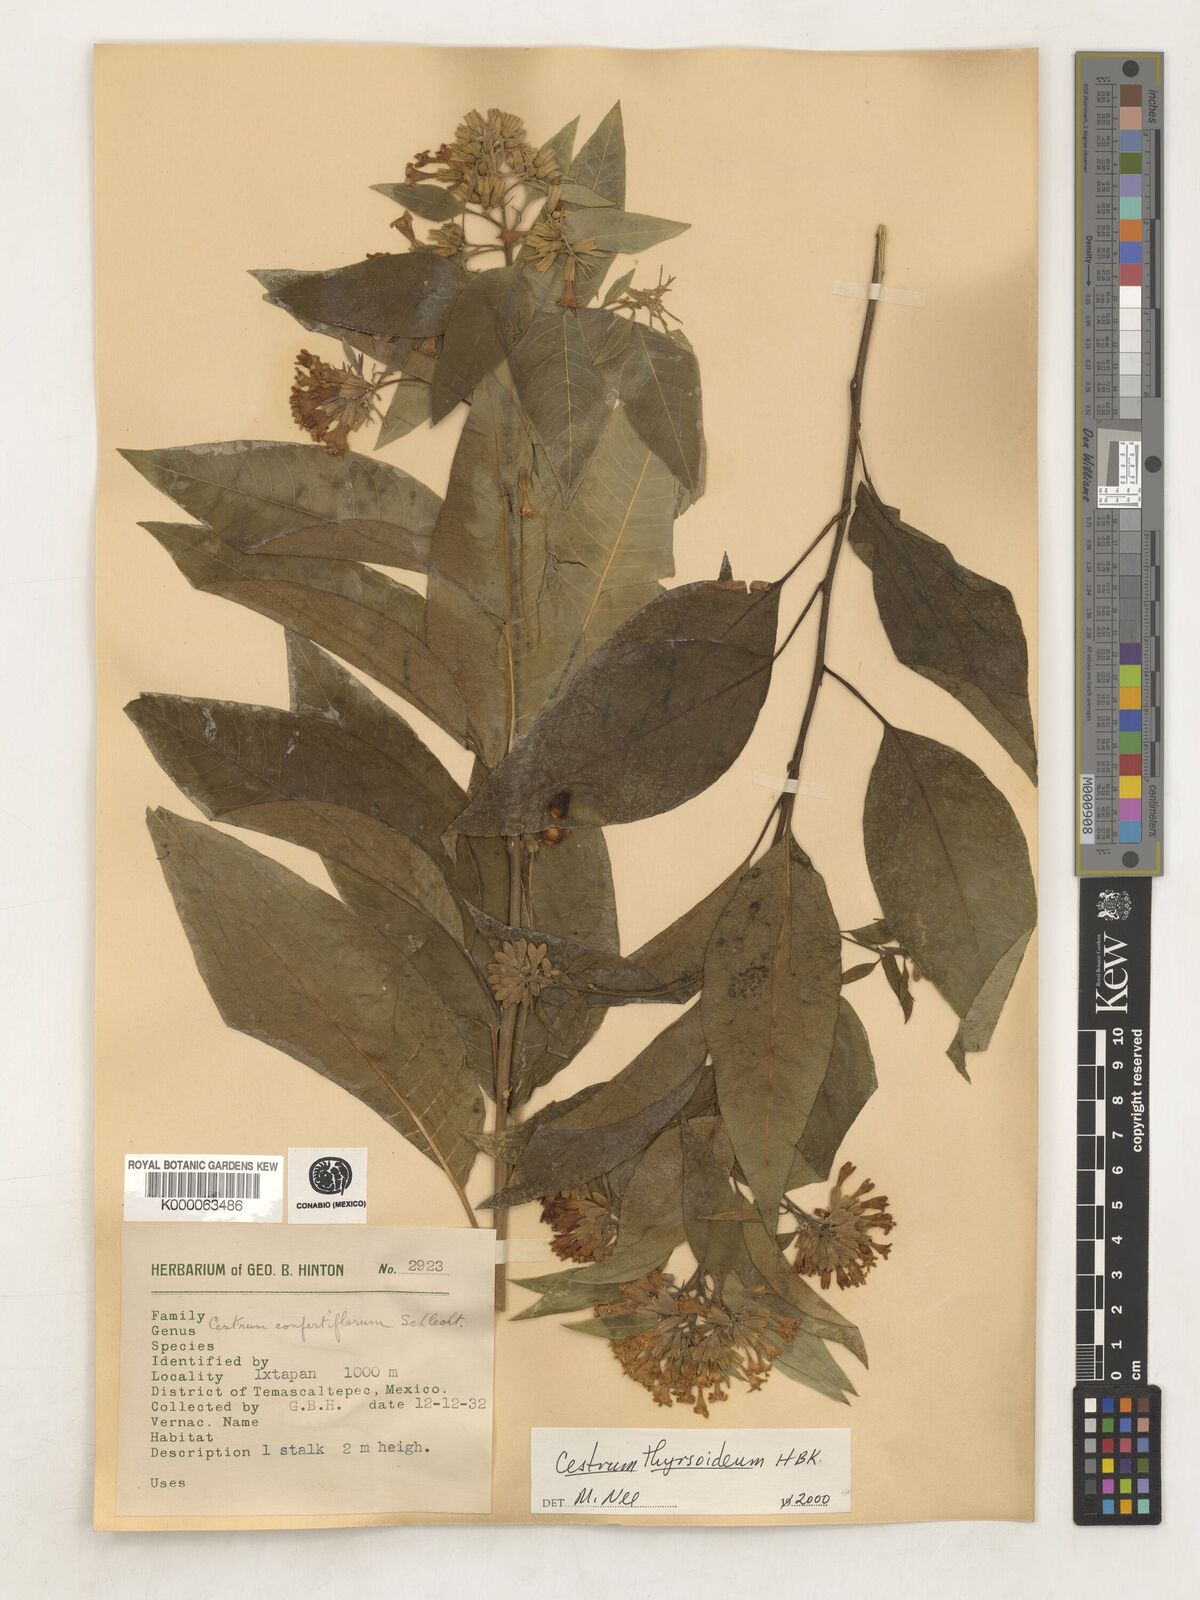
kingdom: Plantae
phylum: Tracheophyta
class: Magnoliopsida
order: Solanales
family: Solanaceae
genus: Cestrum
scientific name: Cestrum
